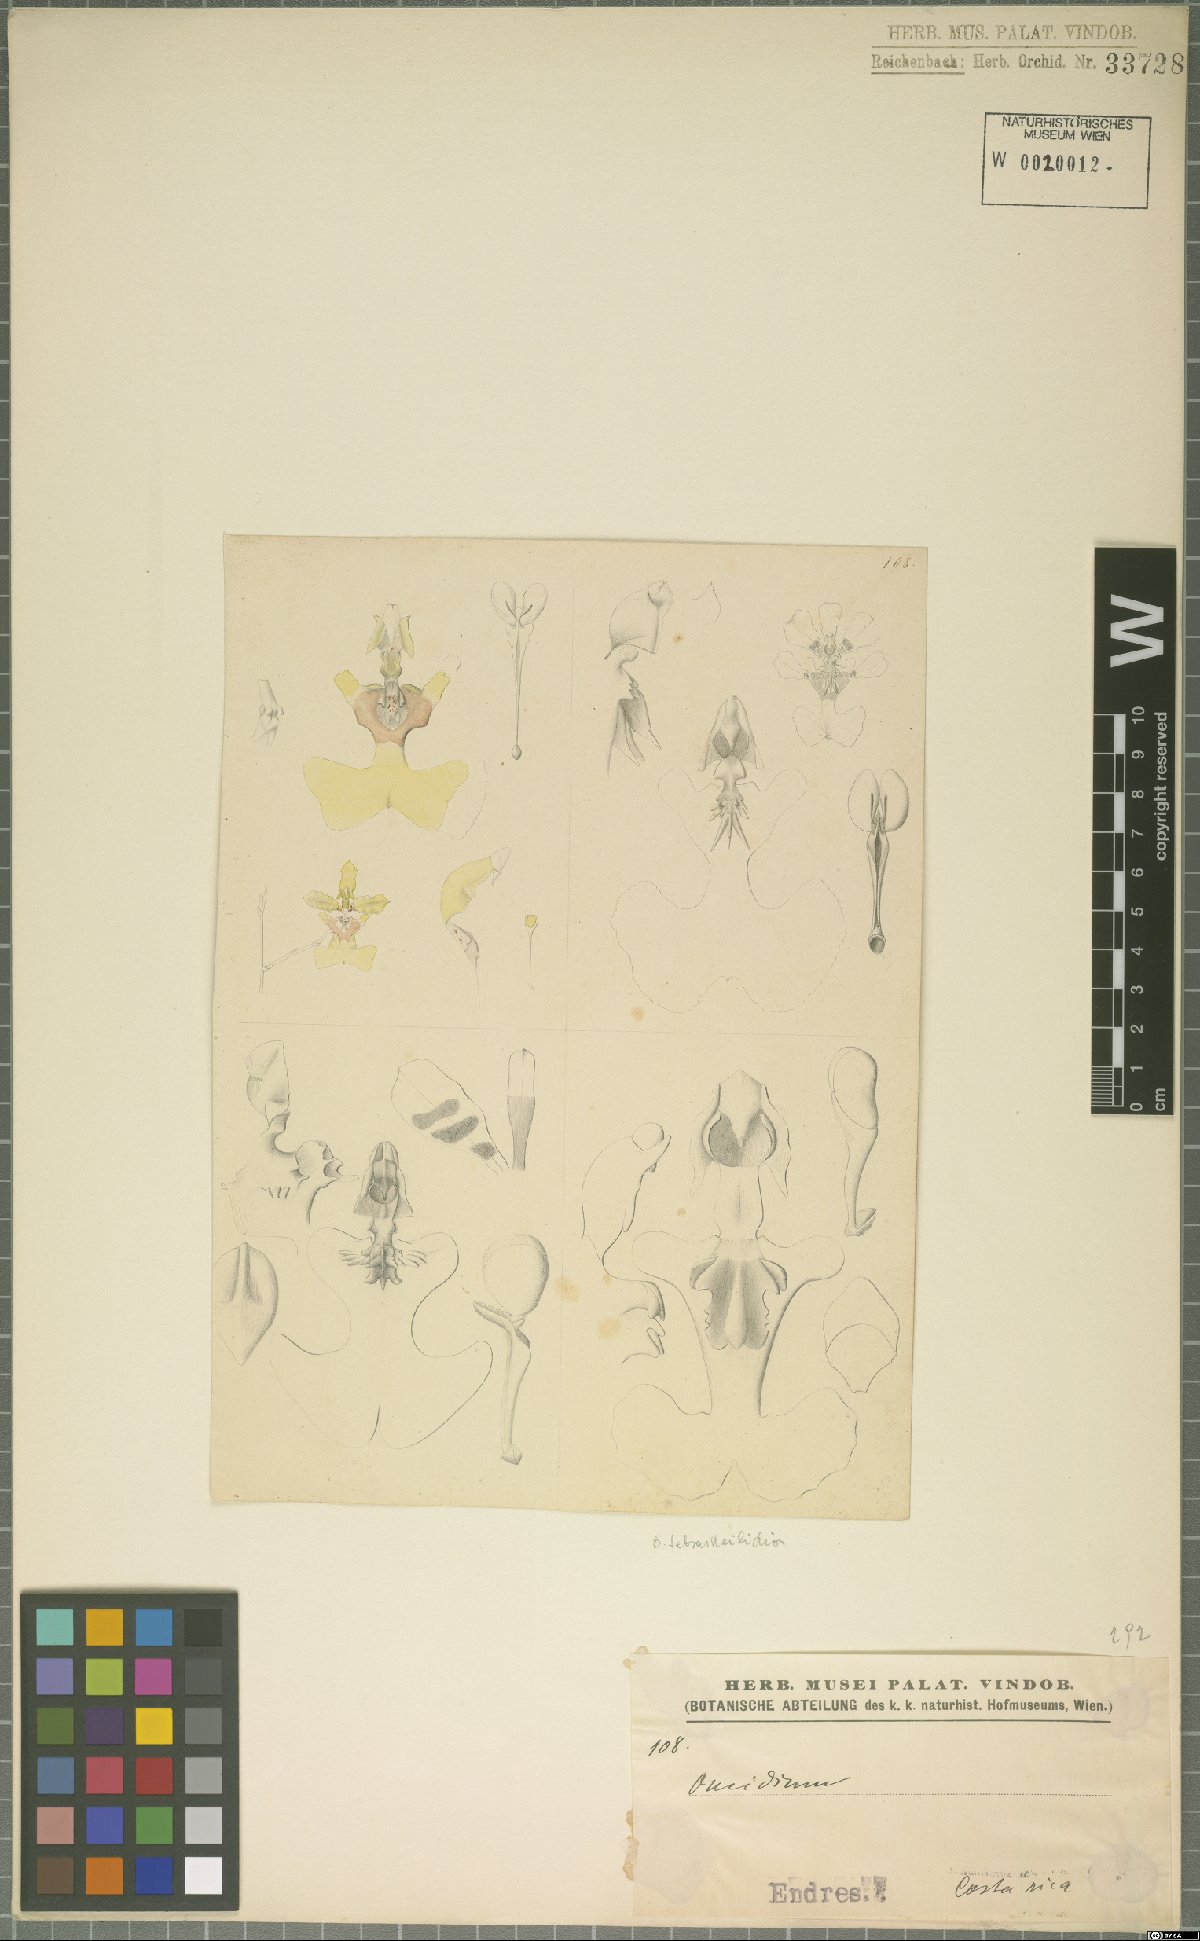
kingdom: Plantae
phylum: Tracheophyta
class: Liliopsida
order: Asparagales
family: Orchidaceae
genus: Oncidium
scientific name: Oncidium
